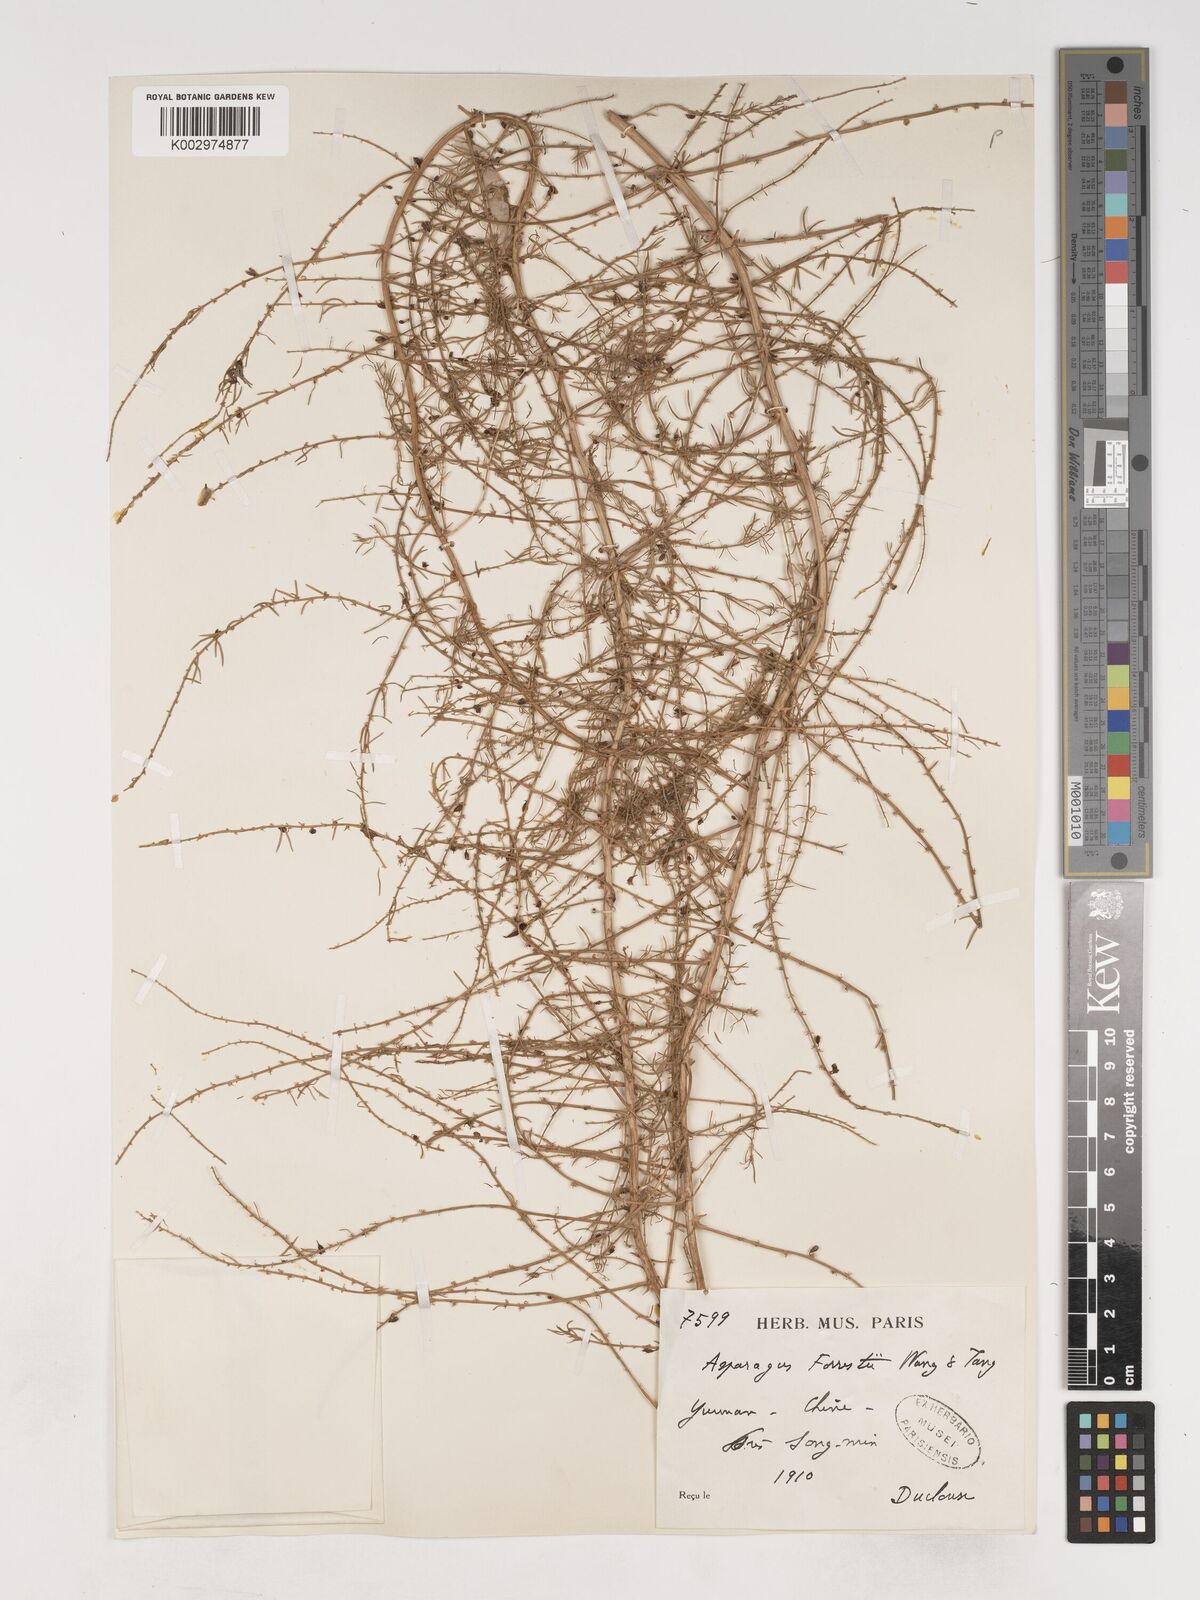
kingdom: Plantae
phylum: Tracheophyta
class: Liliopsida
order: Asparagales
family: Asparagaceae
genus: Asparagus
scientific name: Asparagus
